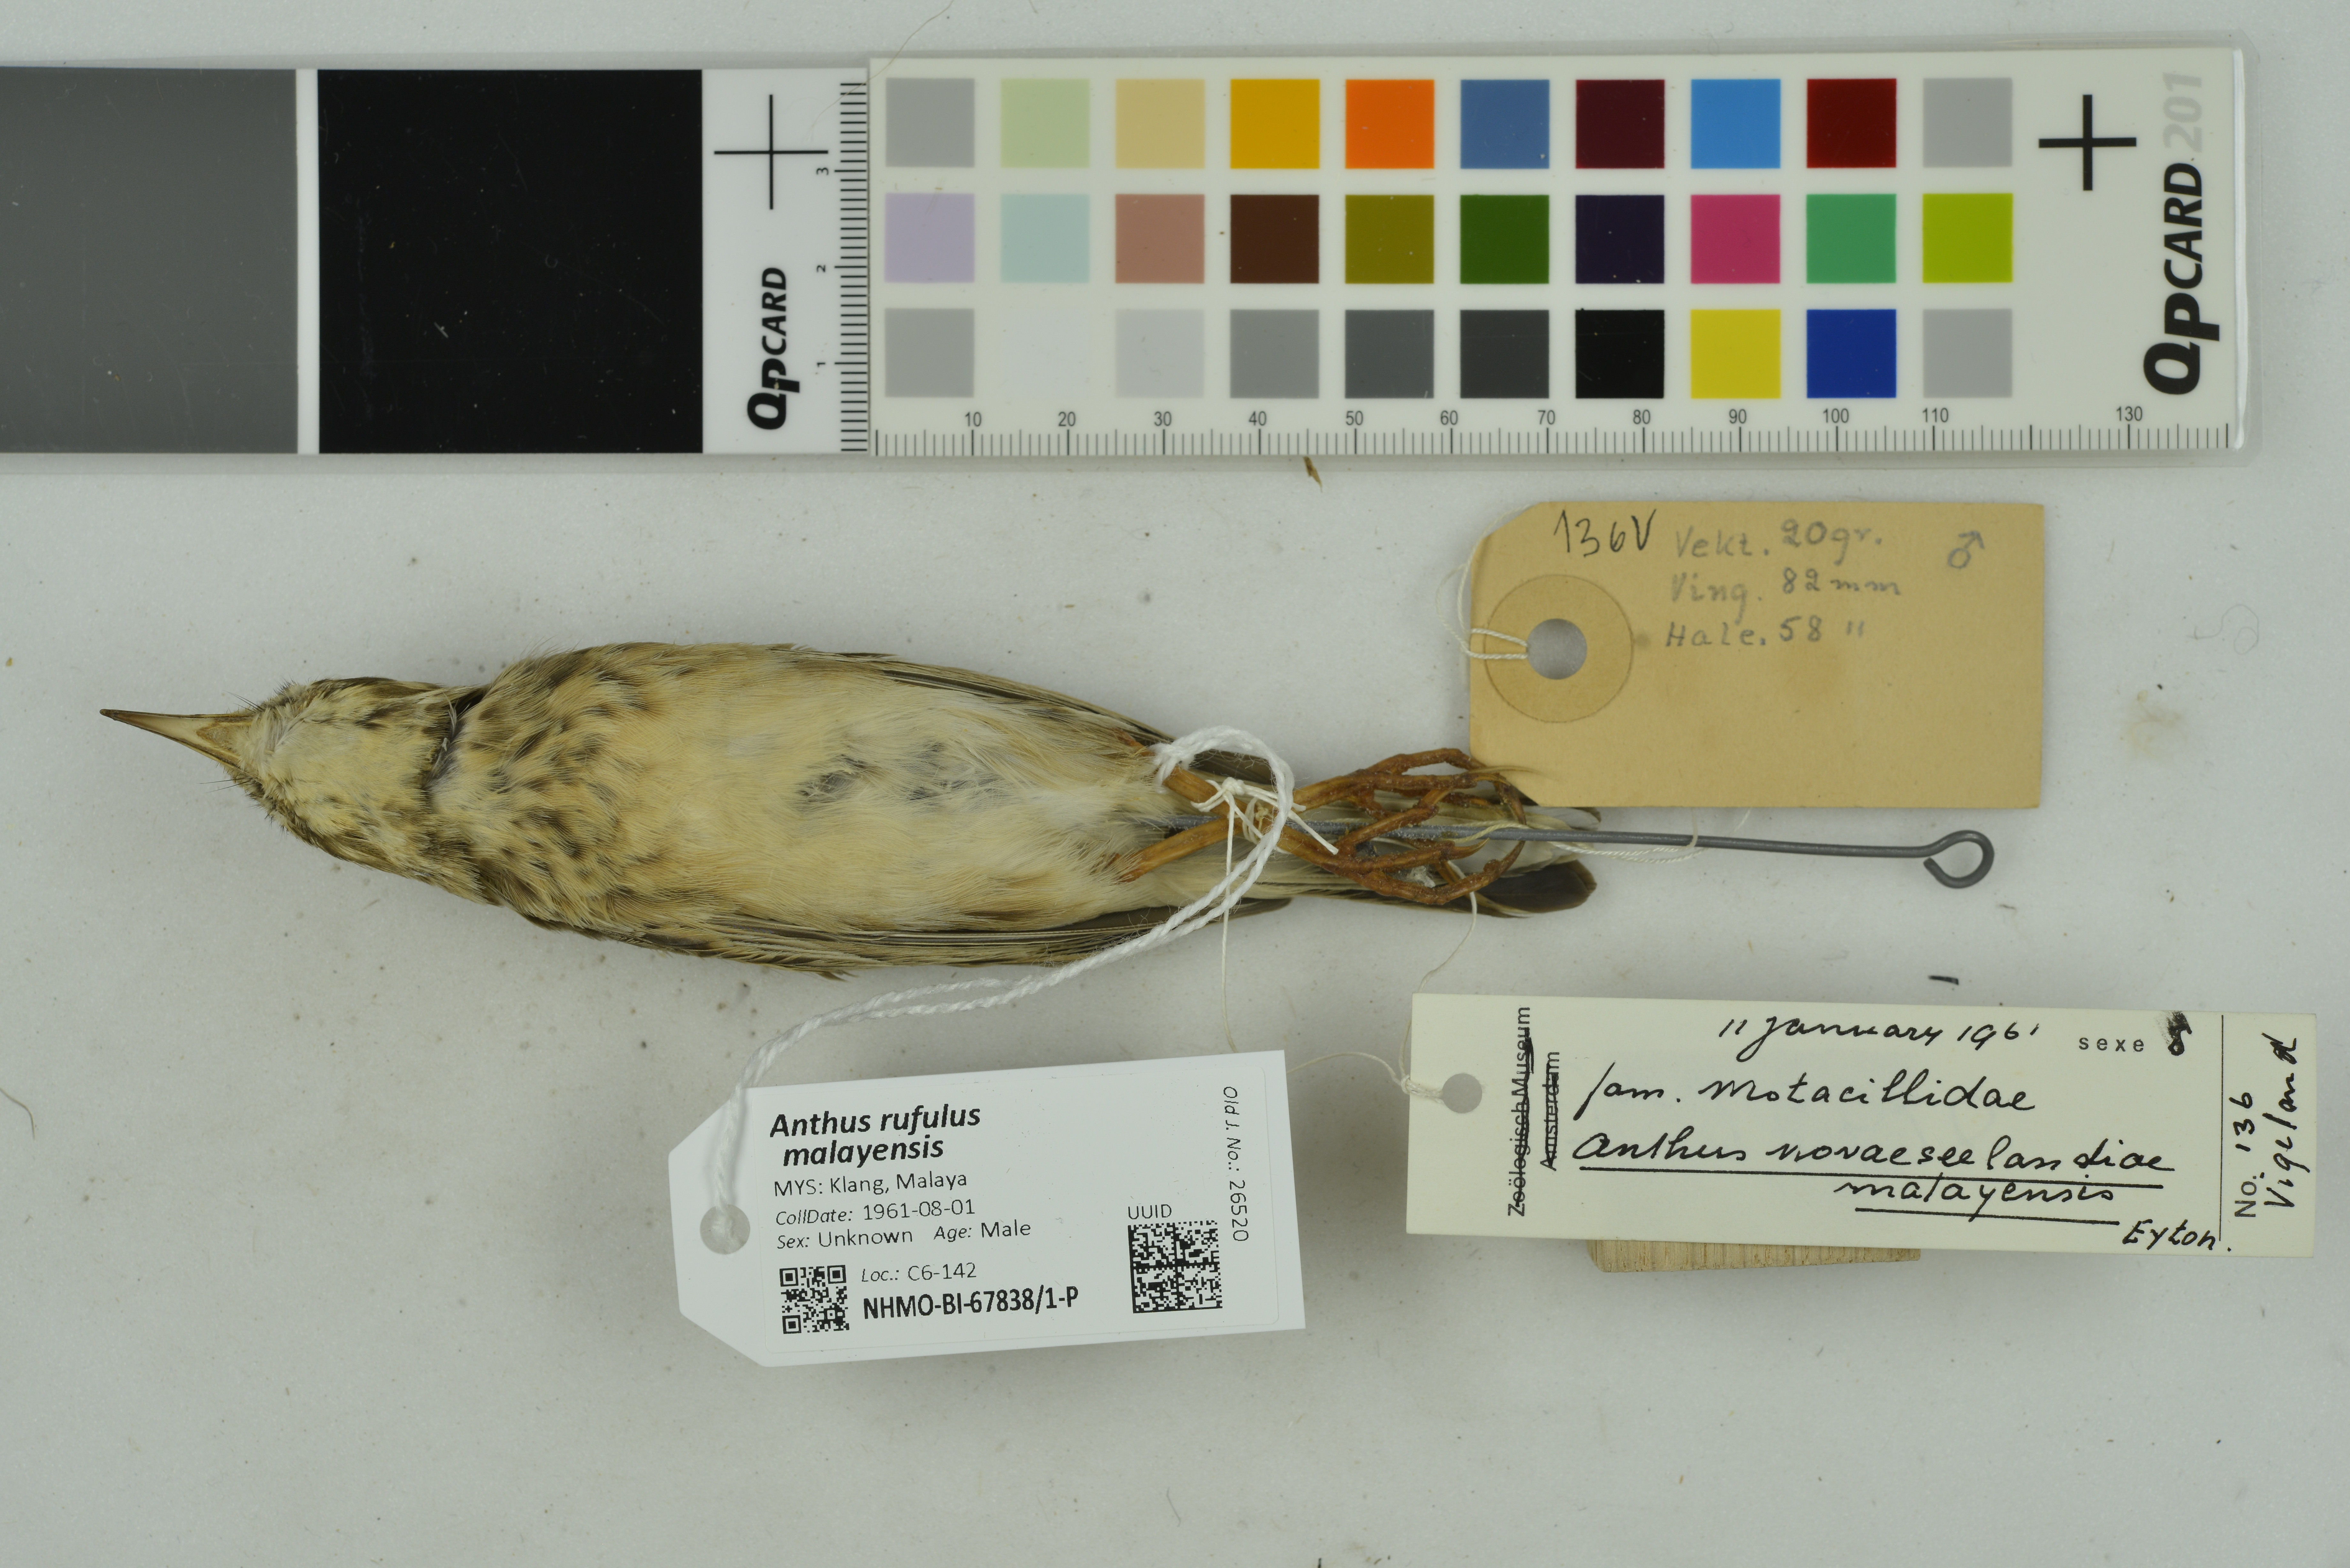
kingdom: Animalia
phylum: Chordata
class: Aves
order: Passeriformes
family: Motacillidae
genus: Anthus
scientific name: Anthus rufulus
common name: Paddyfield pipit
